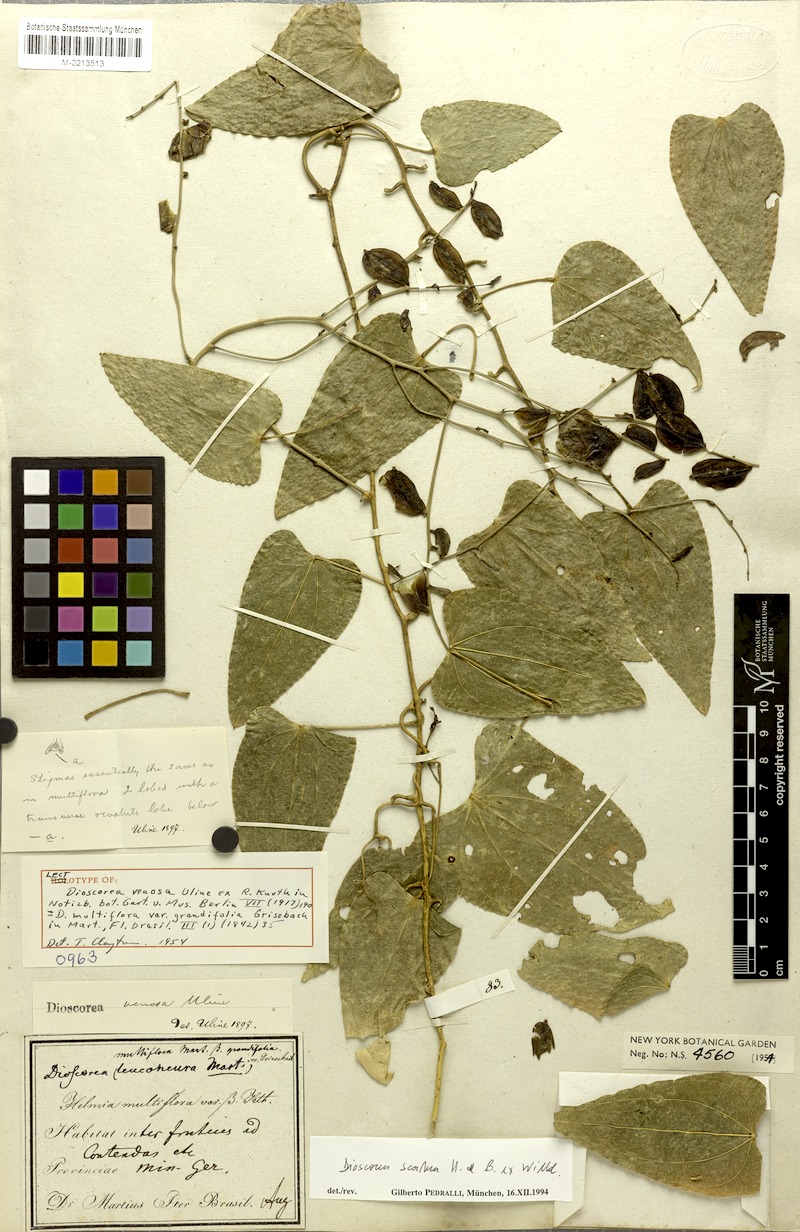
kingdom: Plantae
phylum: Tracheophyta
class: Liliopsida
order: Dioscoreales
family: Dioscoreaceae
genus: Dioscorea
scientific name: Dioscorea fodinarum
